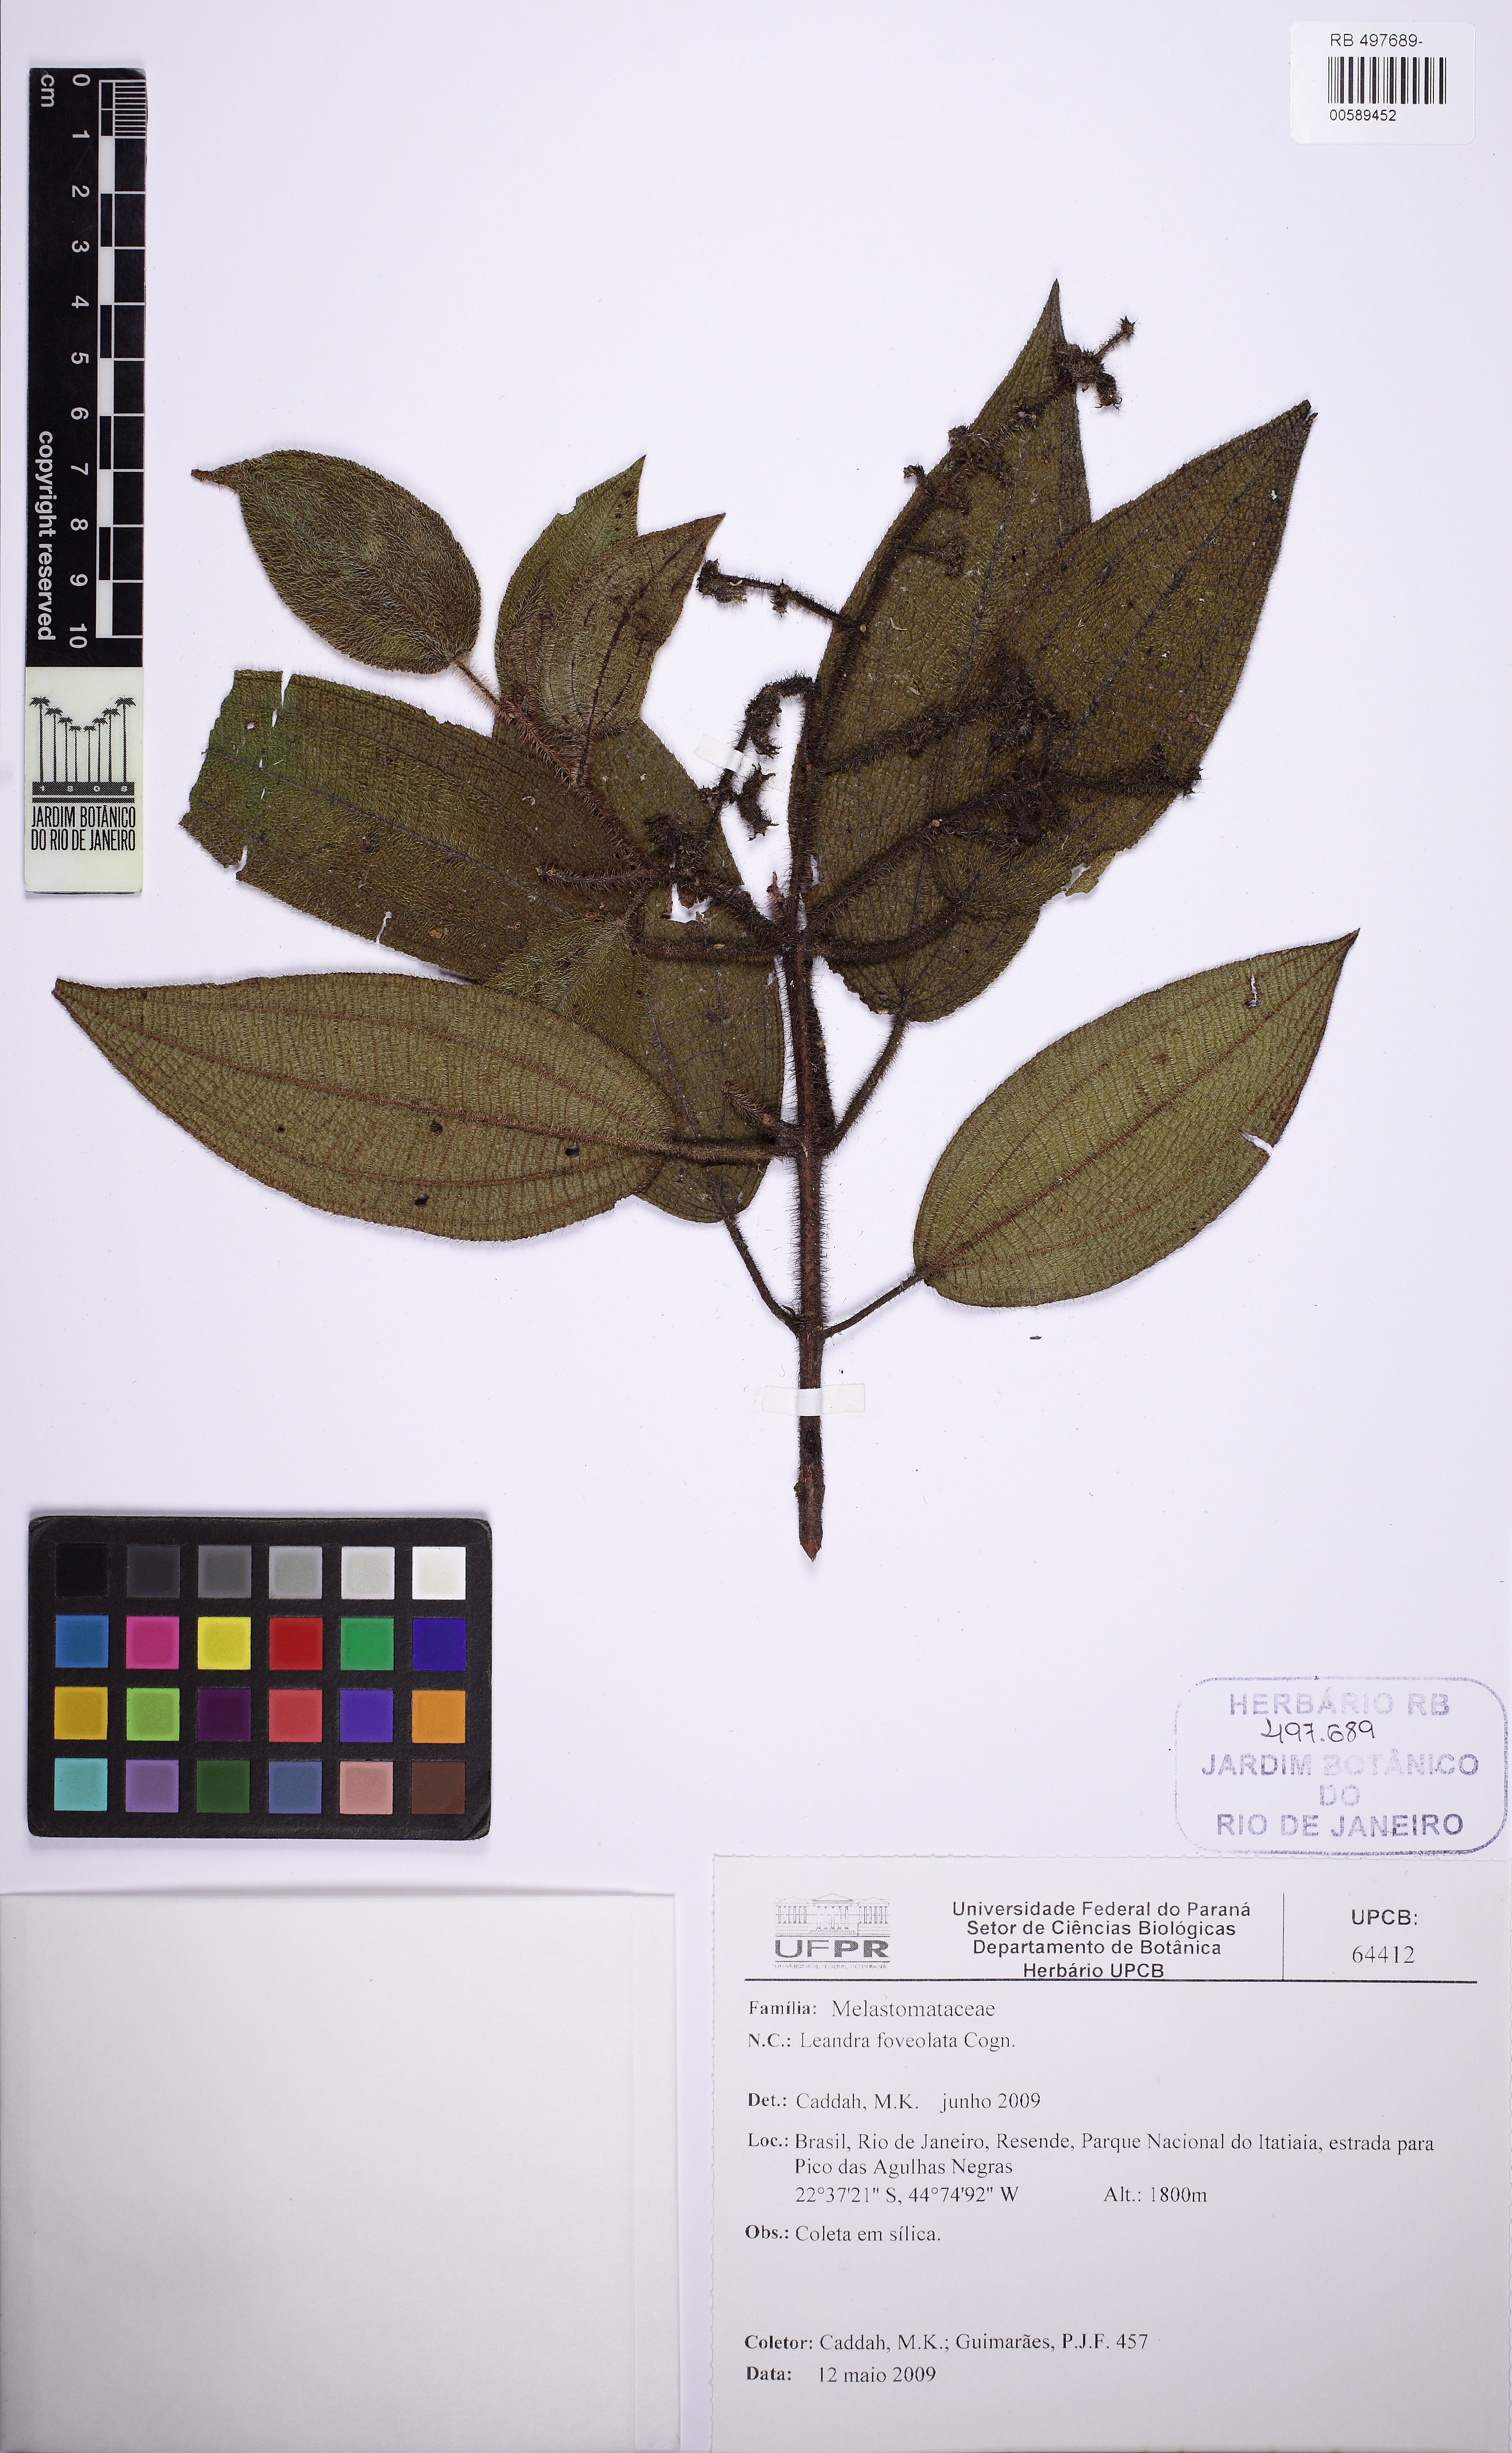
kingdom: Plantae
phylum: Tracheophyta
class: Magnoliopsida
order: Myrtales
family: Melastomataceae
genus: Miconia
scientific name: Miconia leafoveolata
